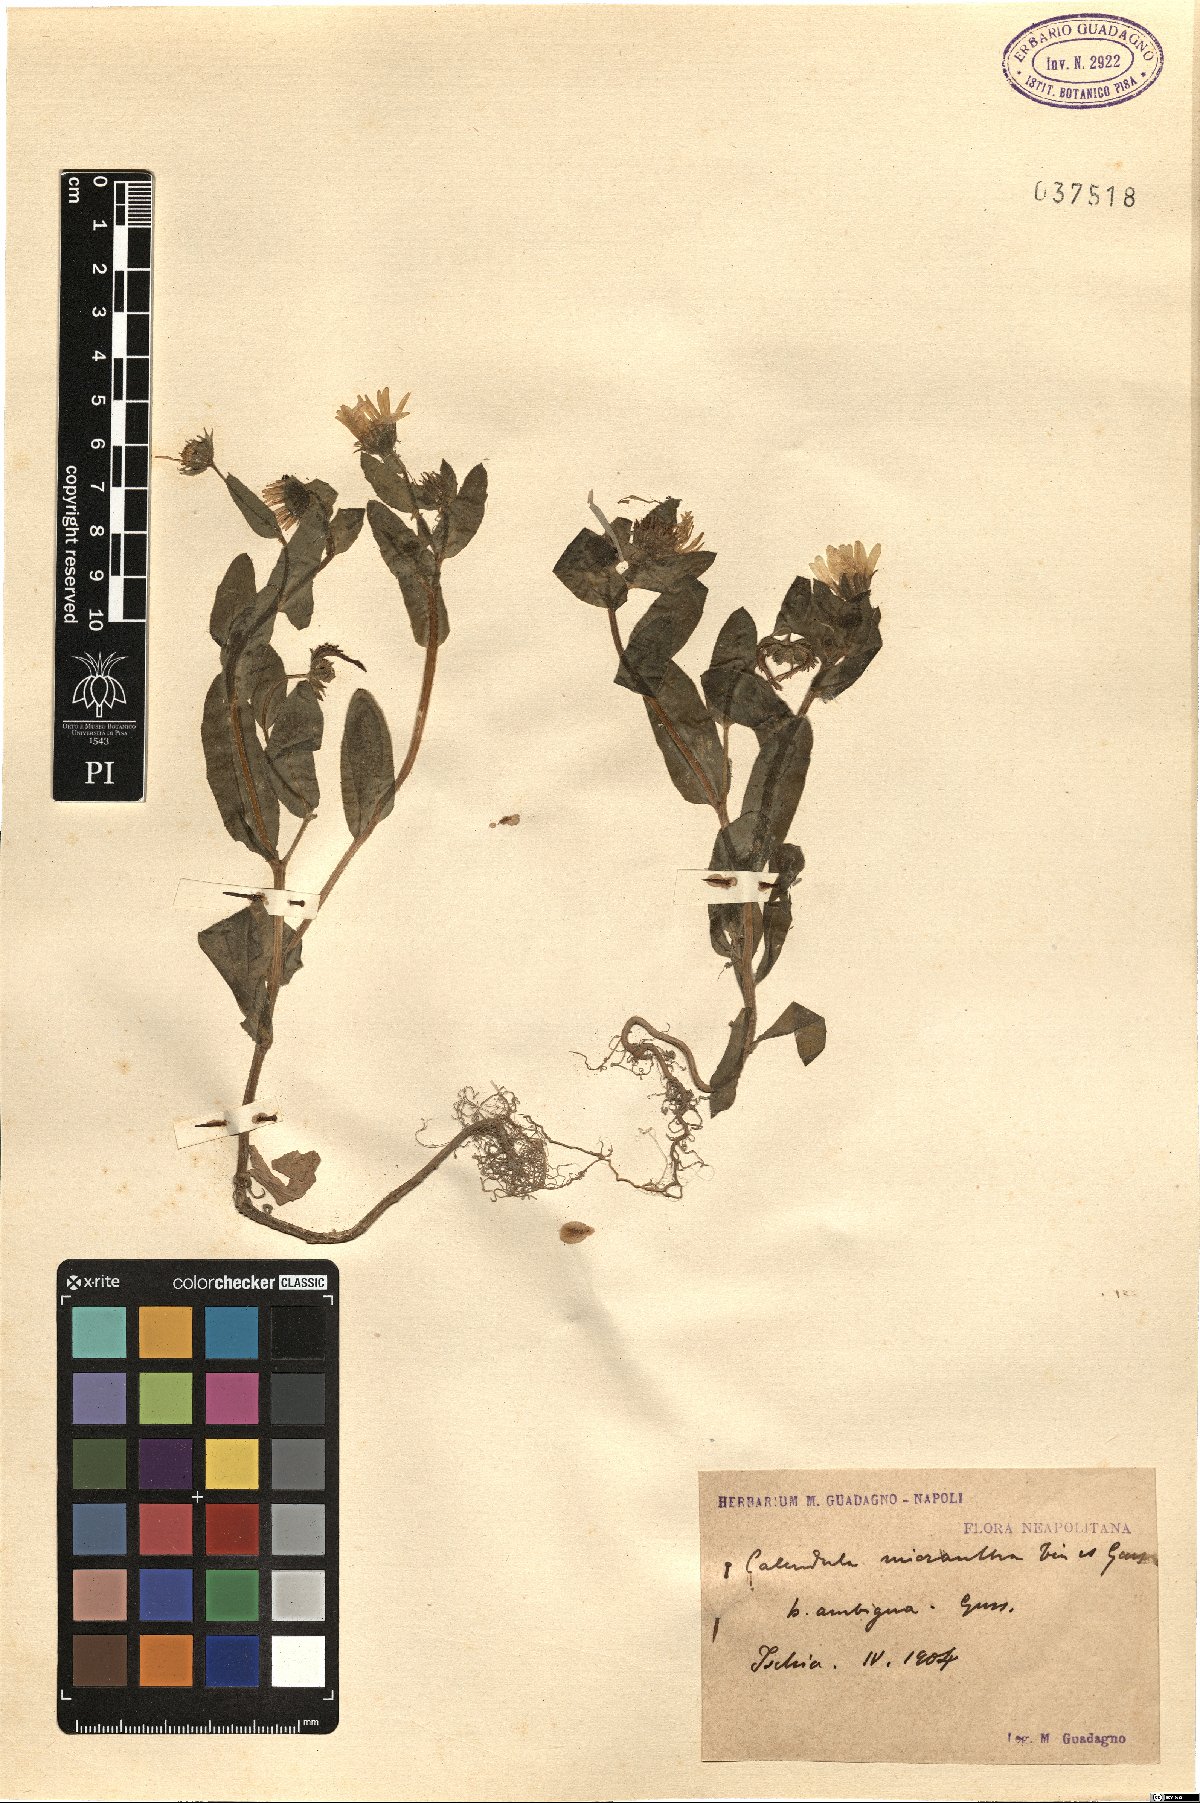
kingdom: Plantae
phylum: Tracheophyta
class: Magnoliopsida
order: Asterales
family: Asteraceae
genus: Calendula
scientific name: Calendula arvensis
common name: Field marigold
